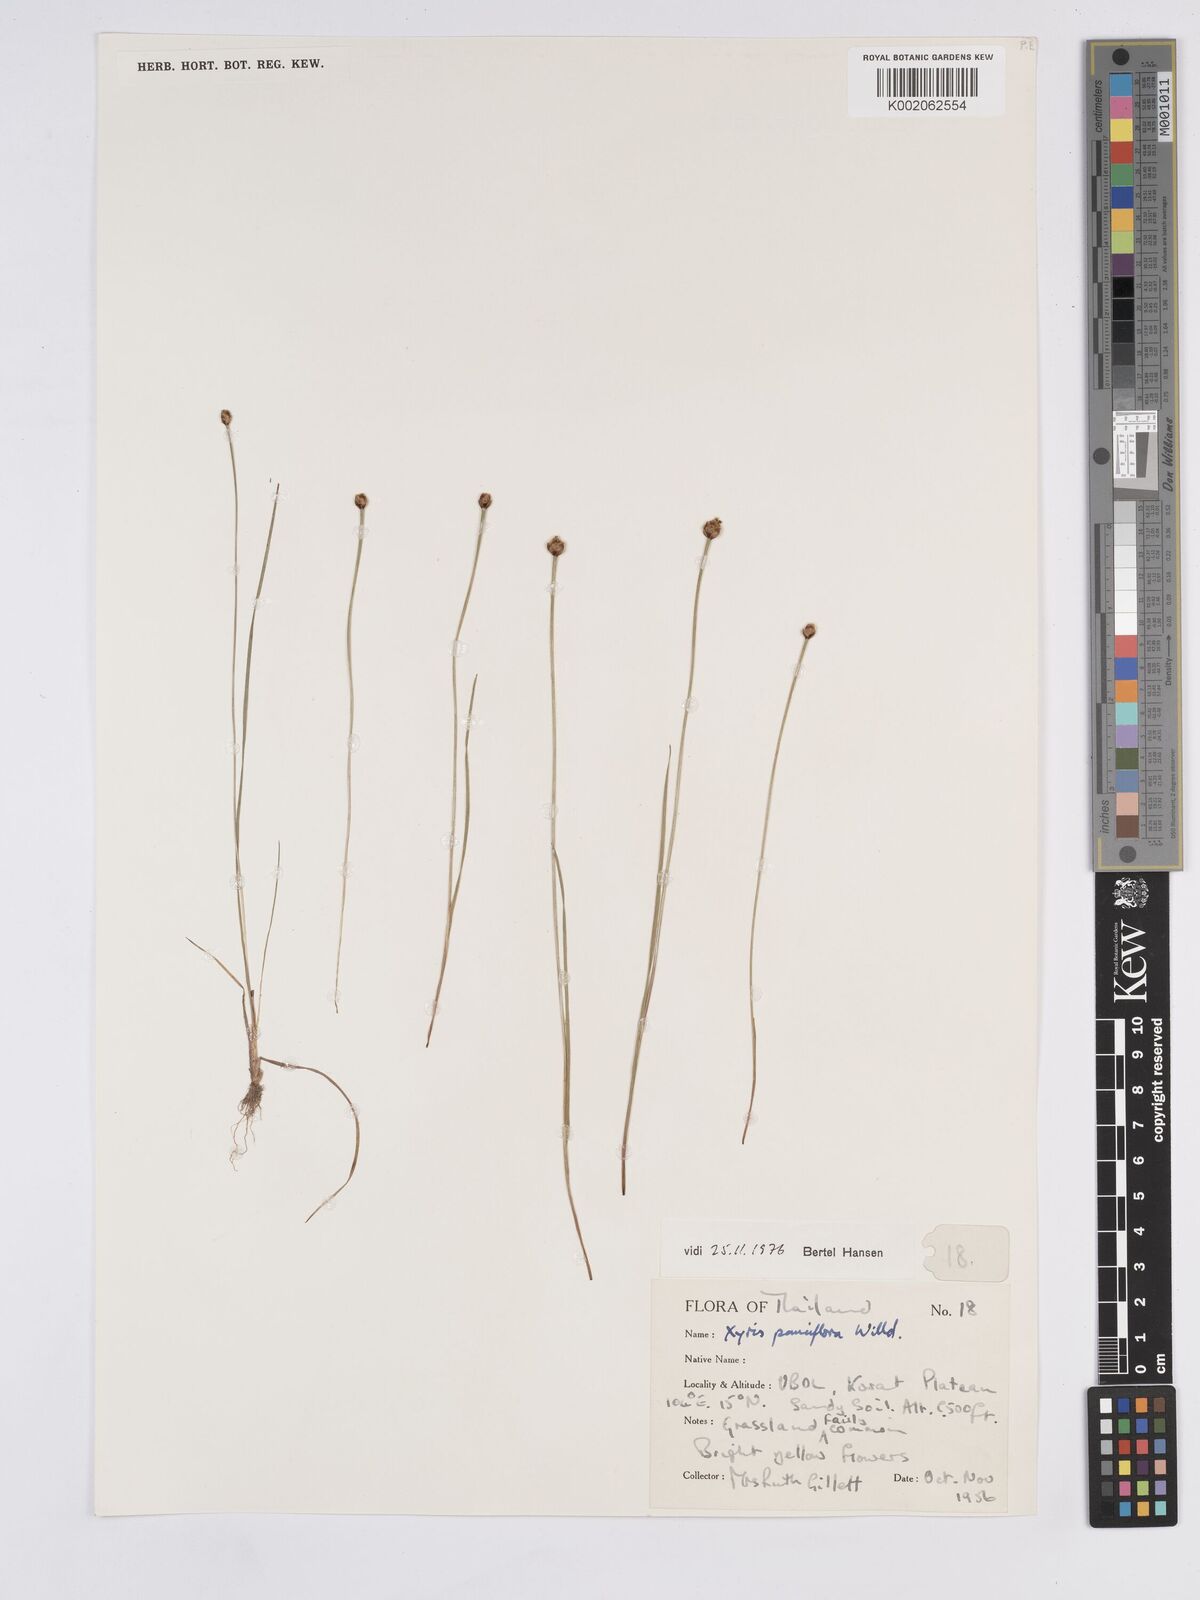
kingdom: Plantae
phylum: Tracheophyta
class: Liliopsida
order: Poales
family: Xyridaceae
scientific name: Xyridaceae
